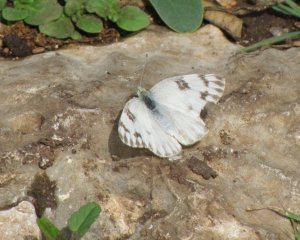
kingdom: Animalia
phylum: Arthropoda
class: Insecta
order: Lepidoptera
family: Pieridae
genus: Pontia
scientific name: Pontia protodice
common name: Checkered White
